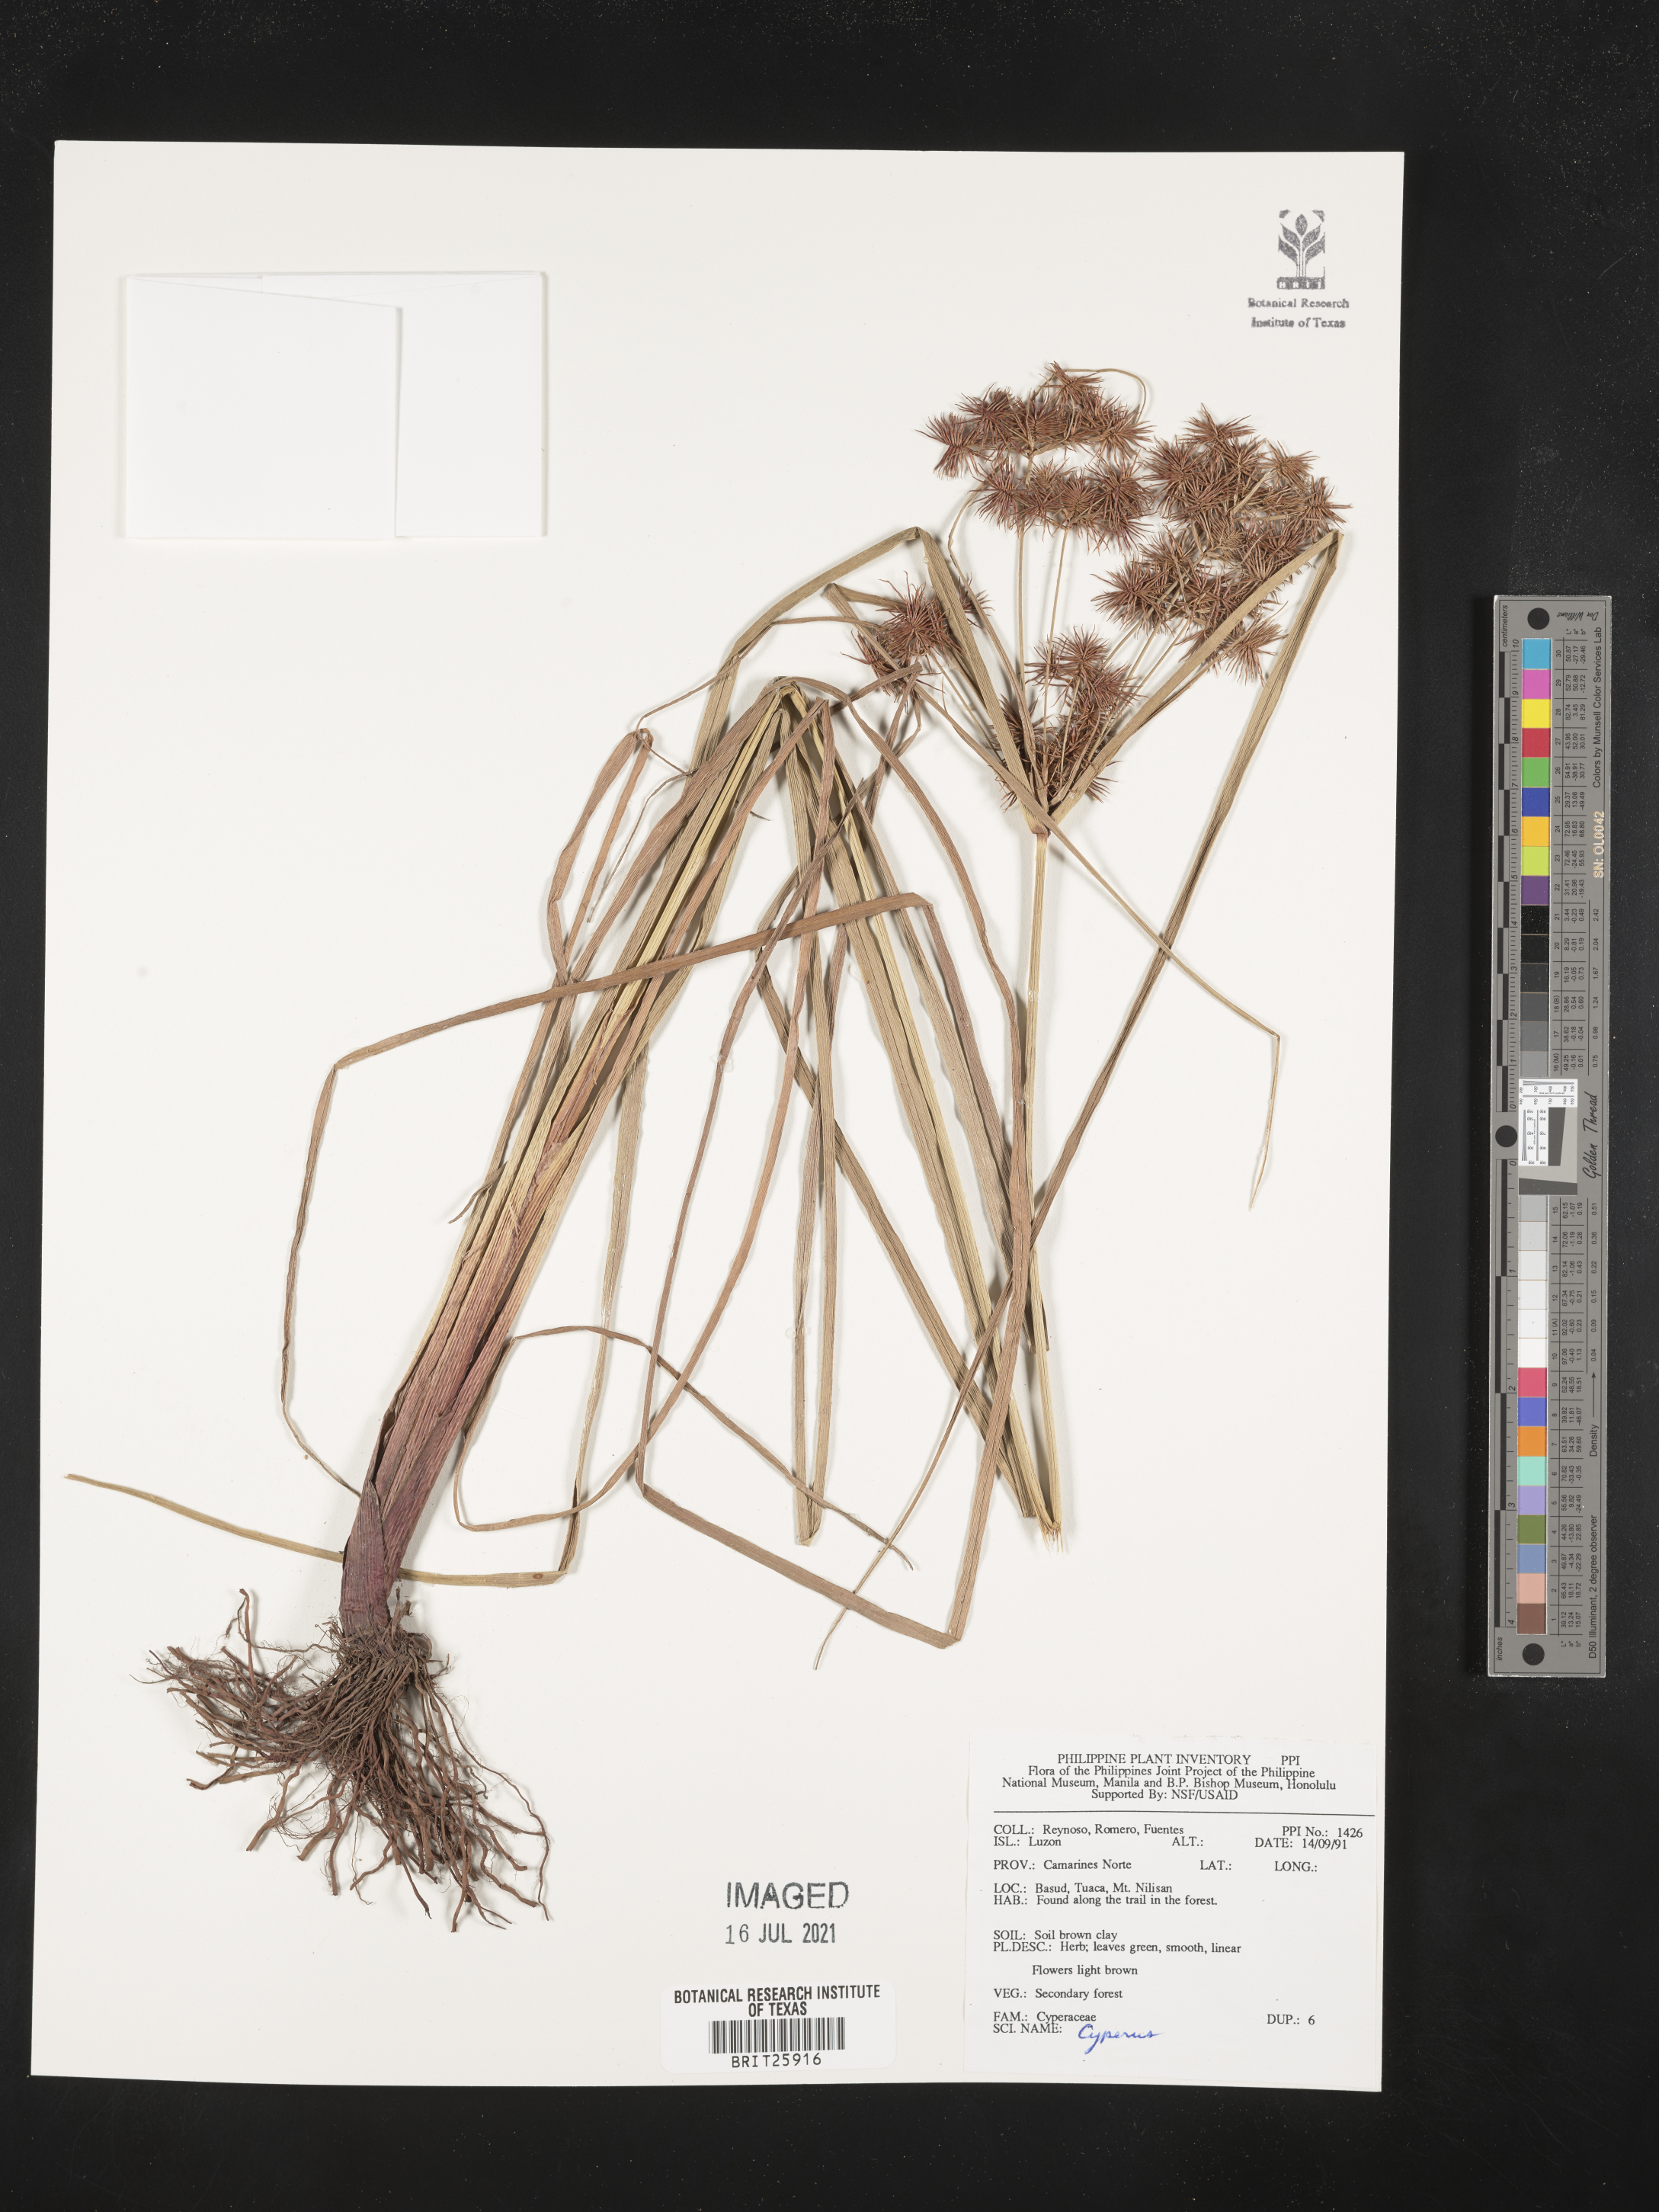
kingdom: Plantae
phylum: Tracheophyta
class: Liliopsida
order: Poales
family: Cyperaceae
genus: Cyperus
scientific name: Cyperus
